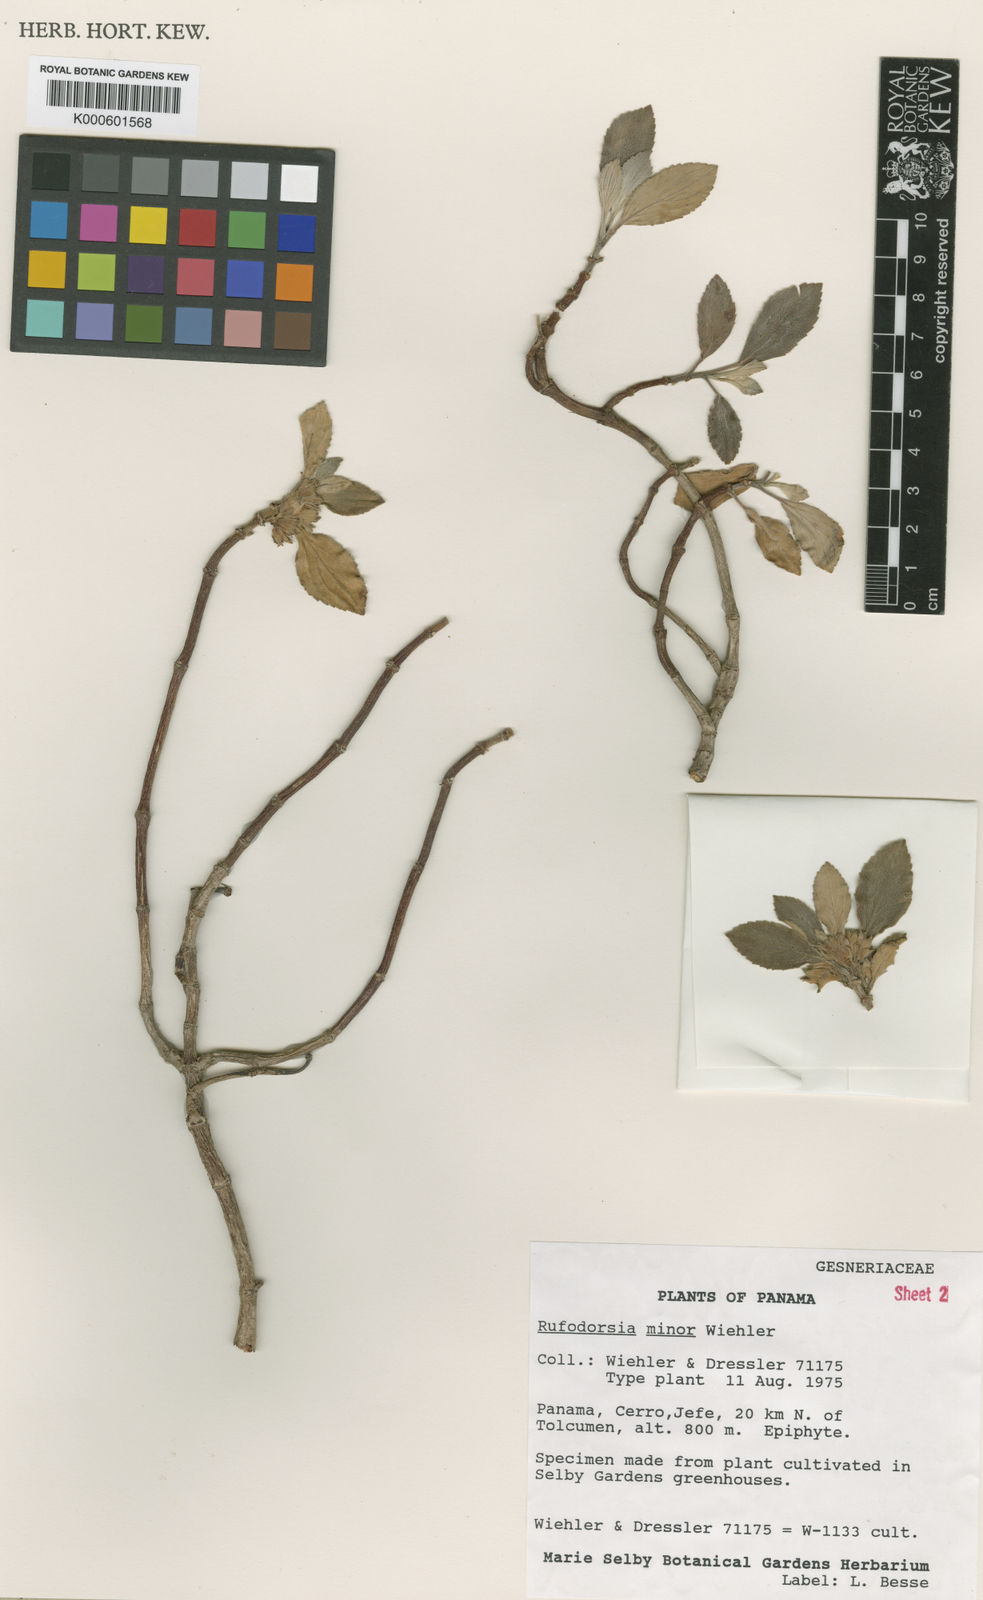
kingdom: Plantae
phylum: Tracheophyta
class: Magnoliopsida
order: Lamiales
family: Gesneriaceae
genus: Rufodorsia
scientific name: Rufodorsia minor
